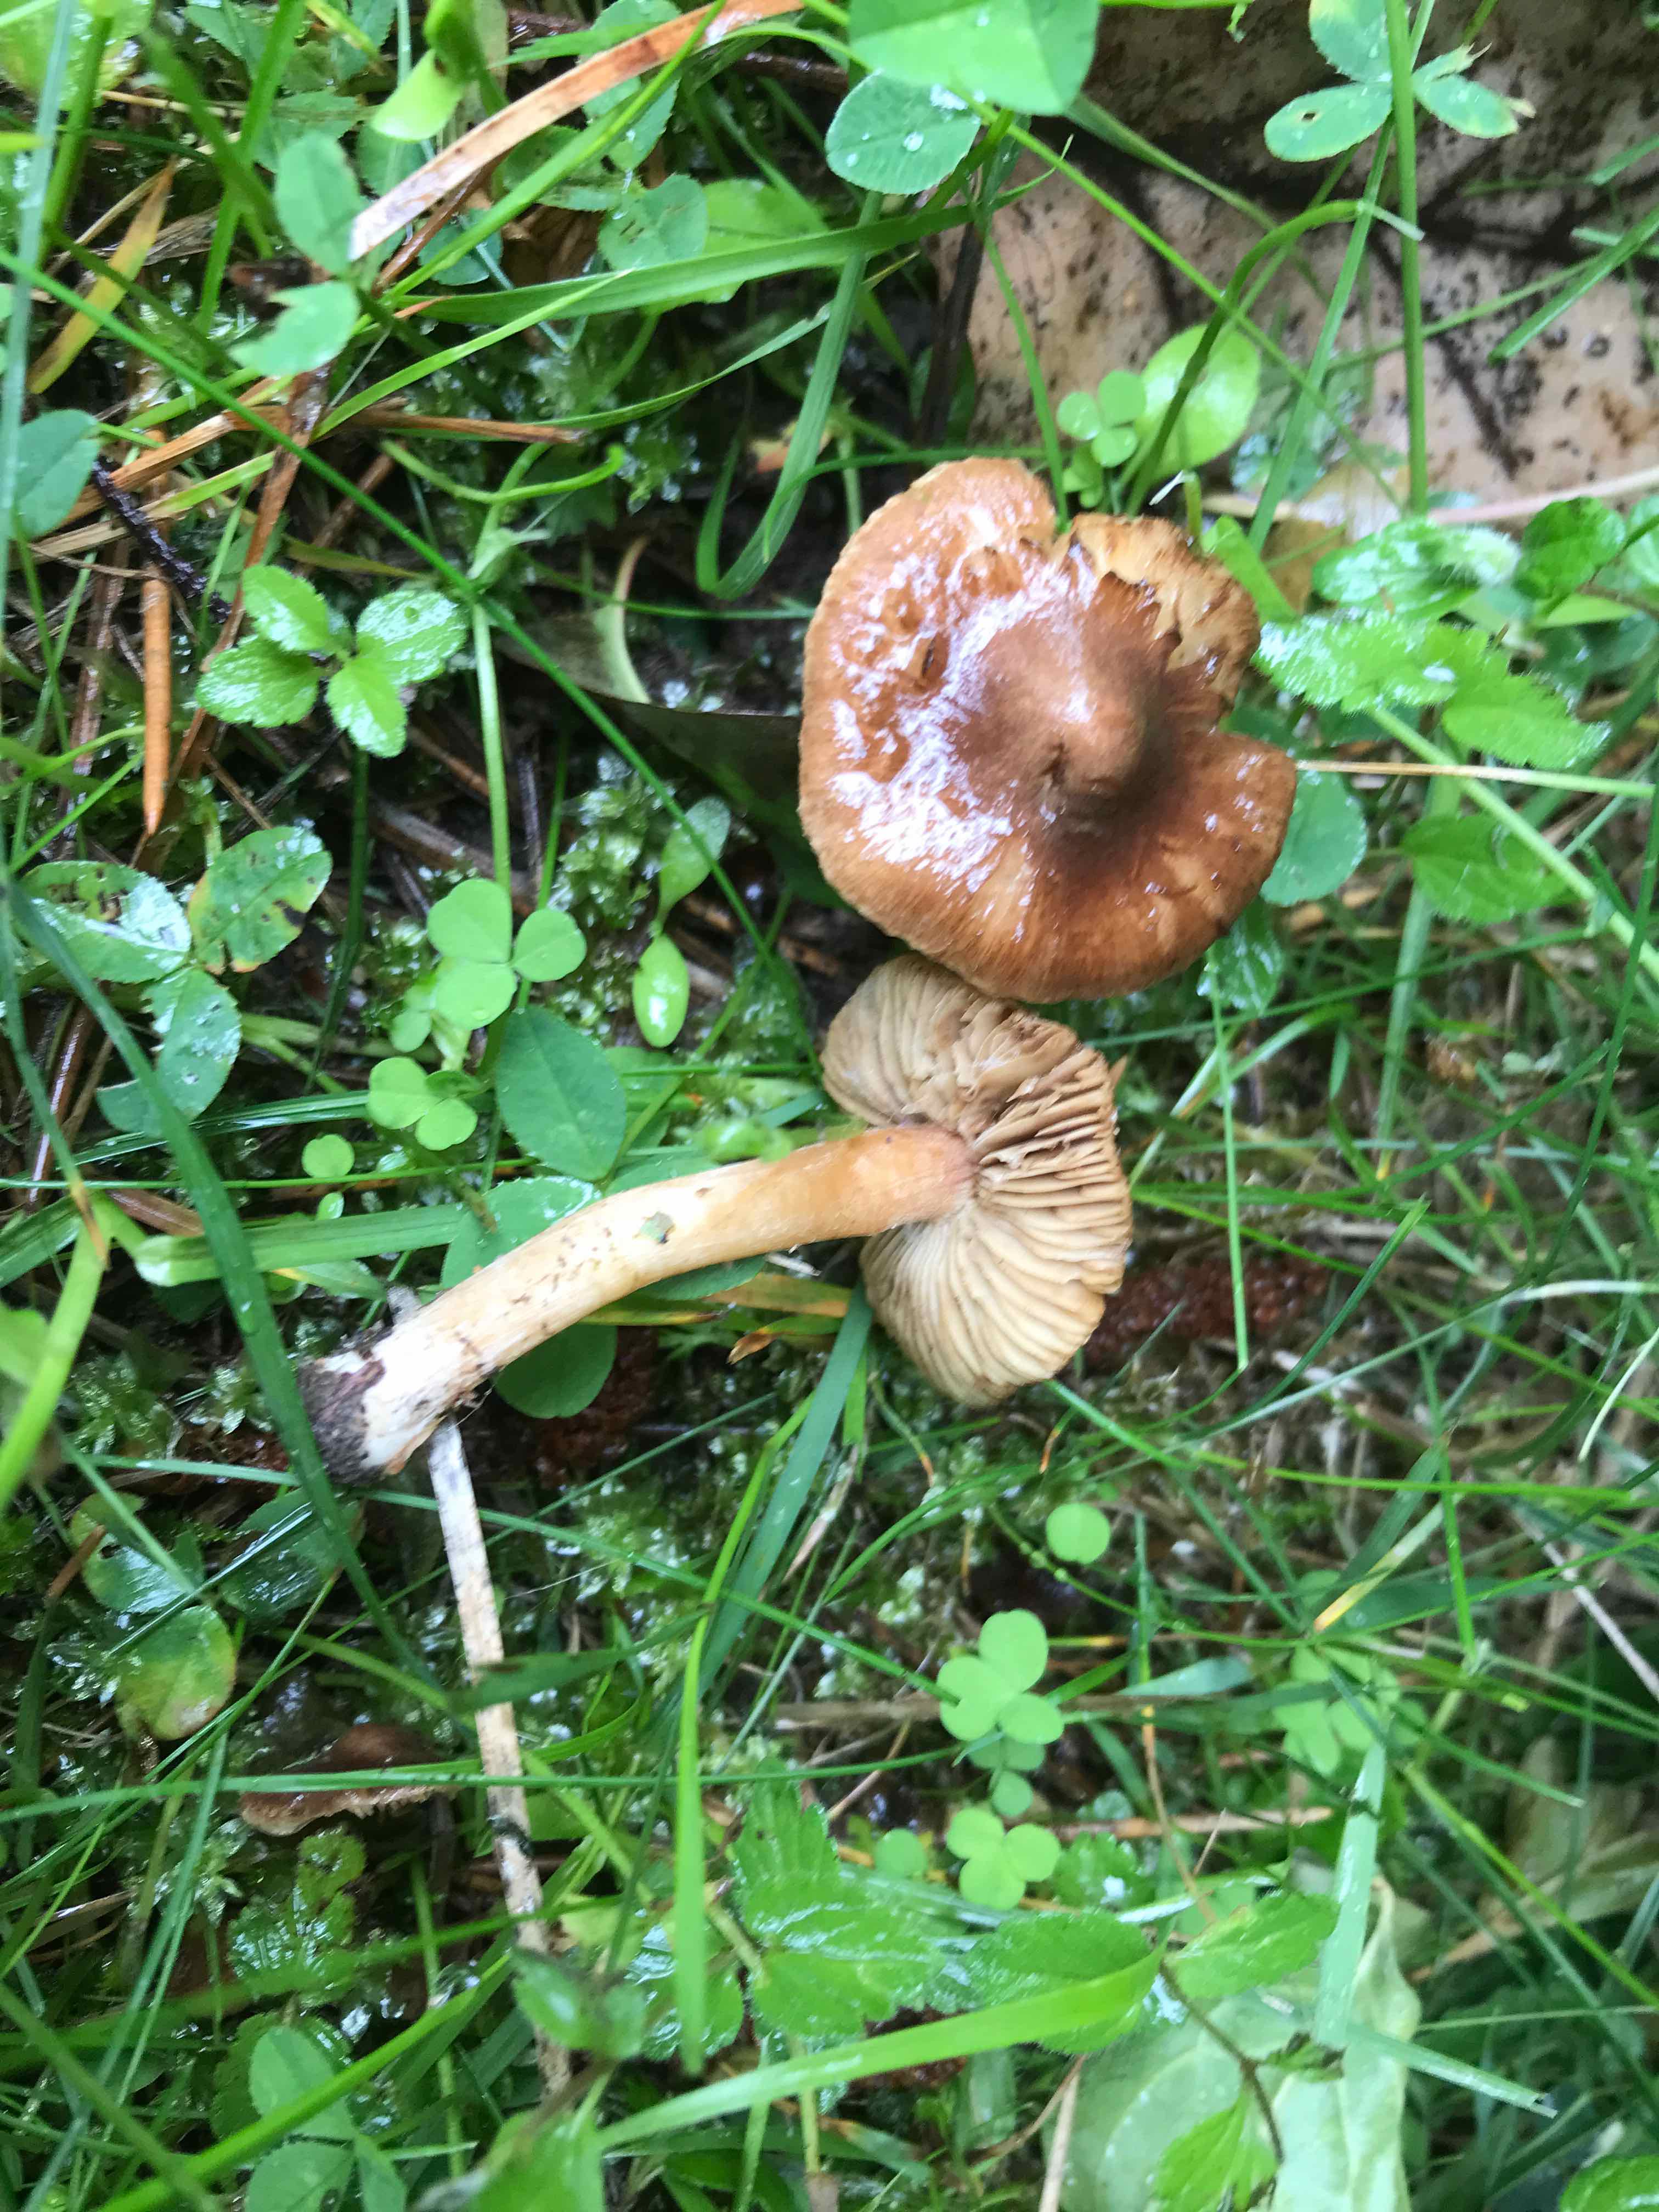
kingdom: Fungi
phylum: Basidiomycota
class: Agaricomycetes
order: Agaricales
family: Inocybaceae
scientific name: Inocybaceae
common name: trævlhatfamilien
